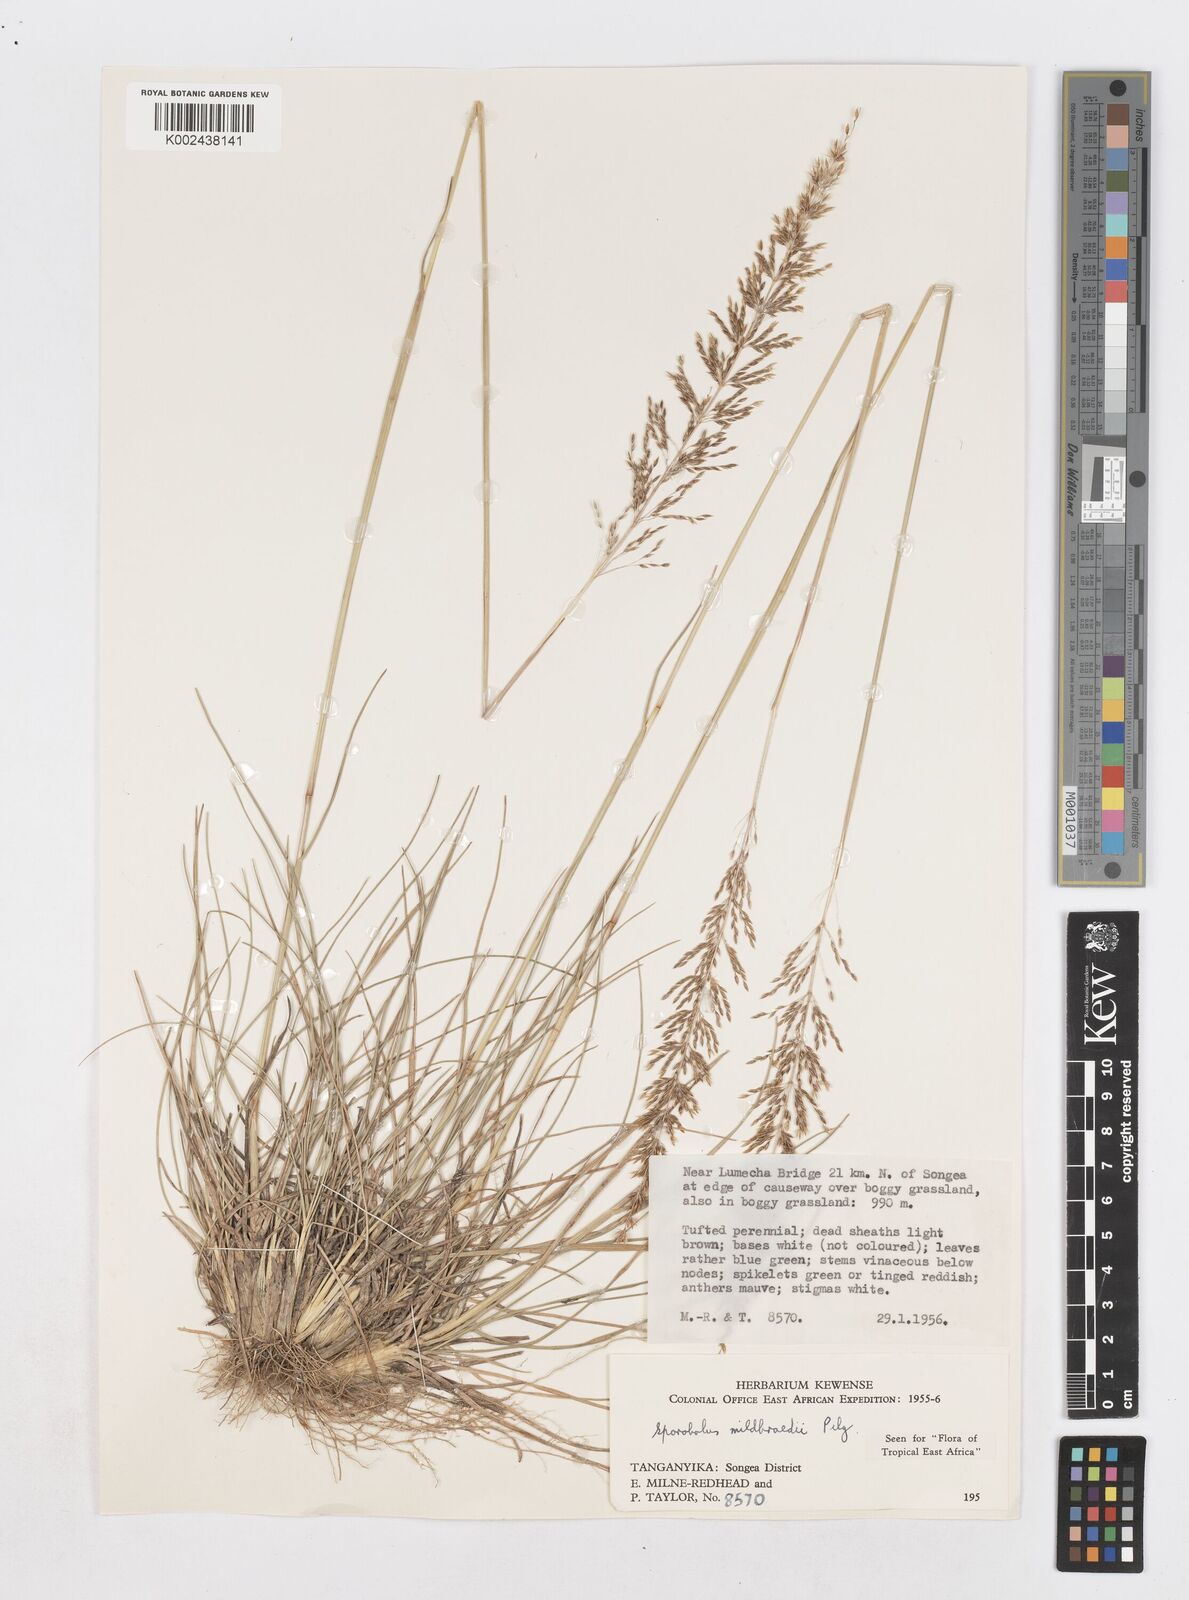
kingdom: Plantae
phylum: Tracheophyta
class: Liliopsida
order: Poales
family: Poaceae
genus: Sporobolus
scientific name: Sporobolus mildbraedii
